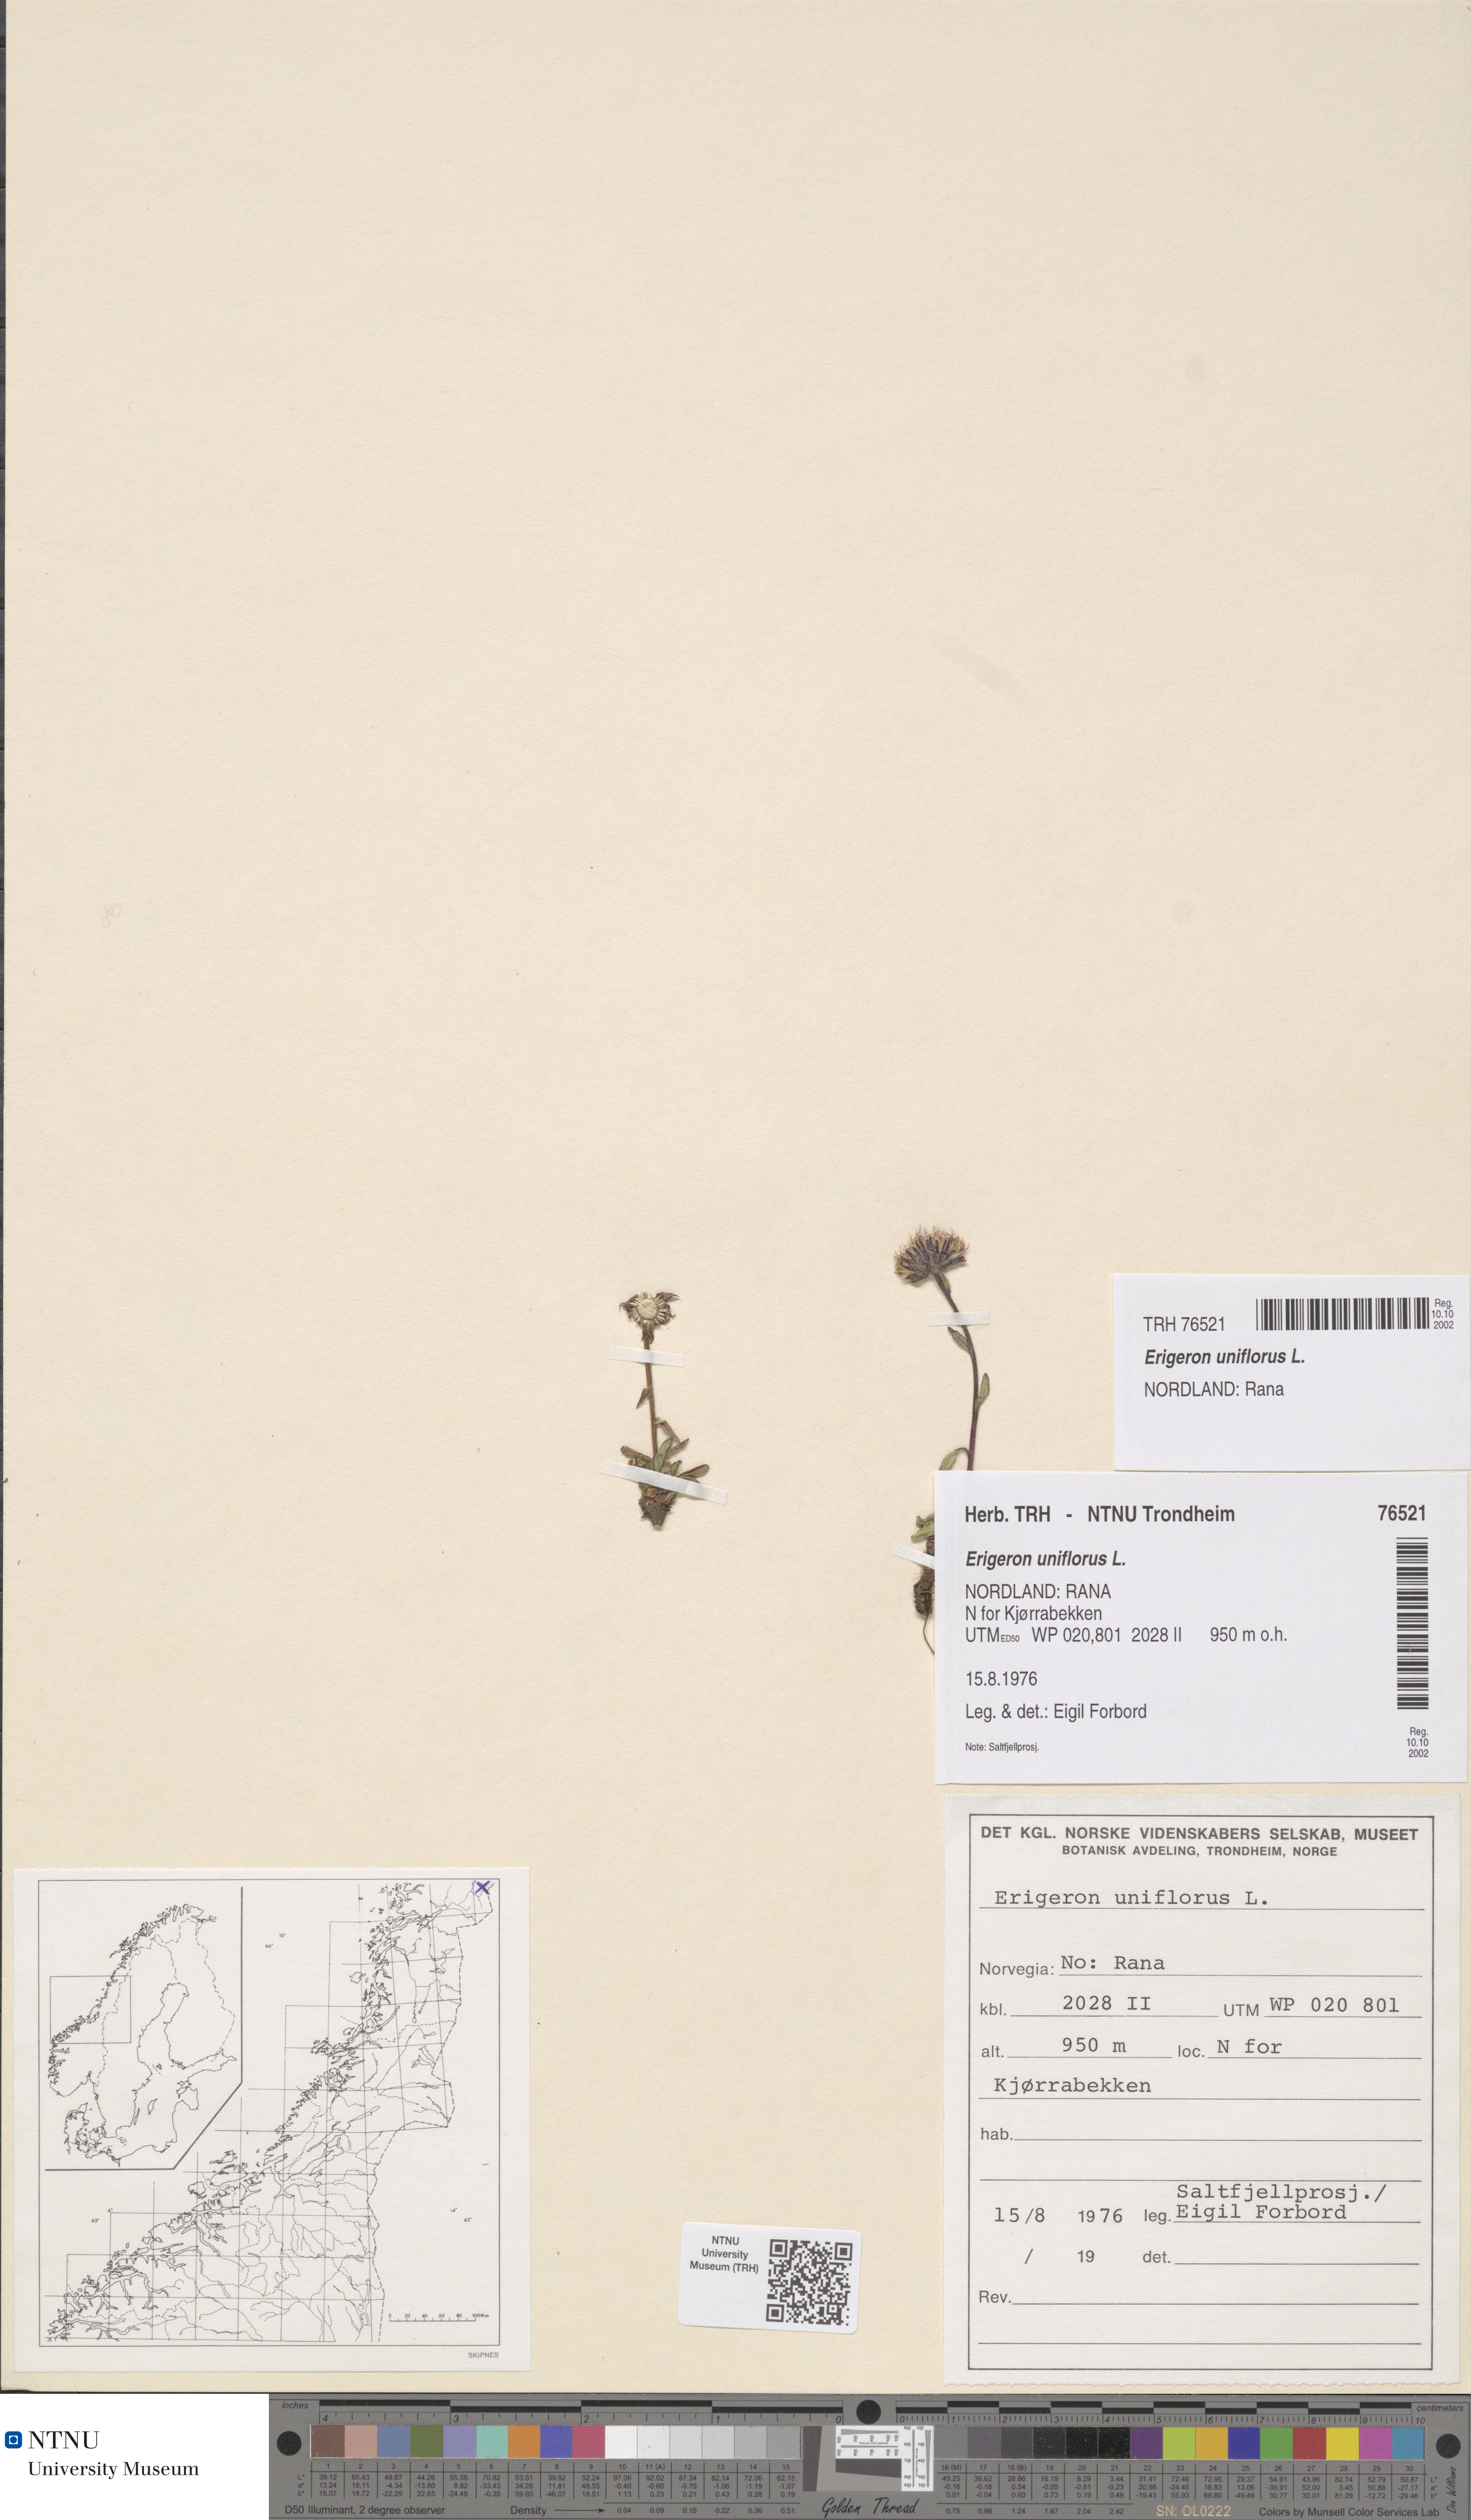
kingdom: Plantae
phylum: Tracheophyta
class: Magnoliopsida
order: Asterales
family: Asteraceae
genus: Erigeron
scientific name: Erigeron uniflorus
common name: Northern daisy
